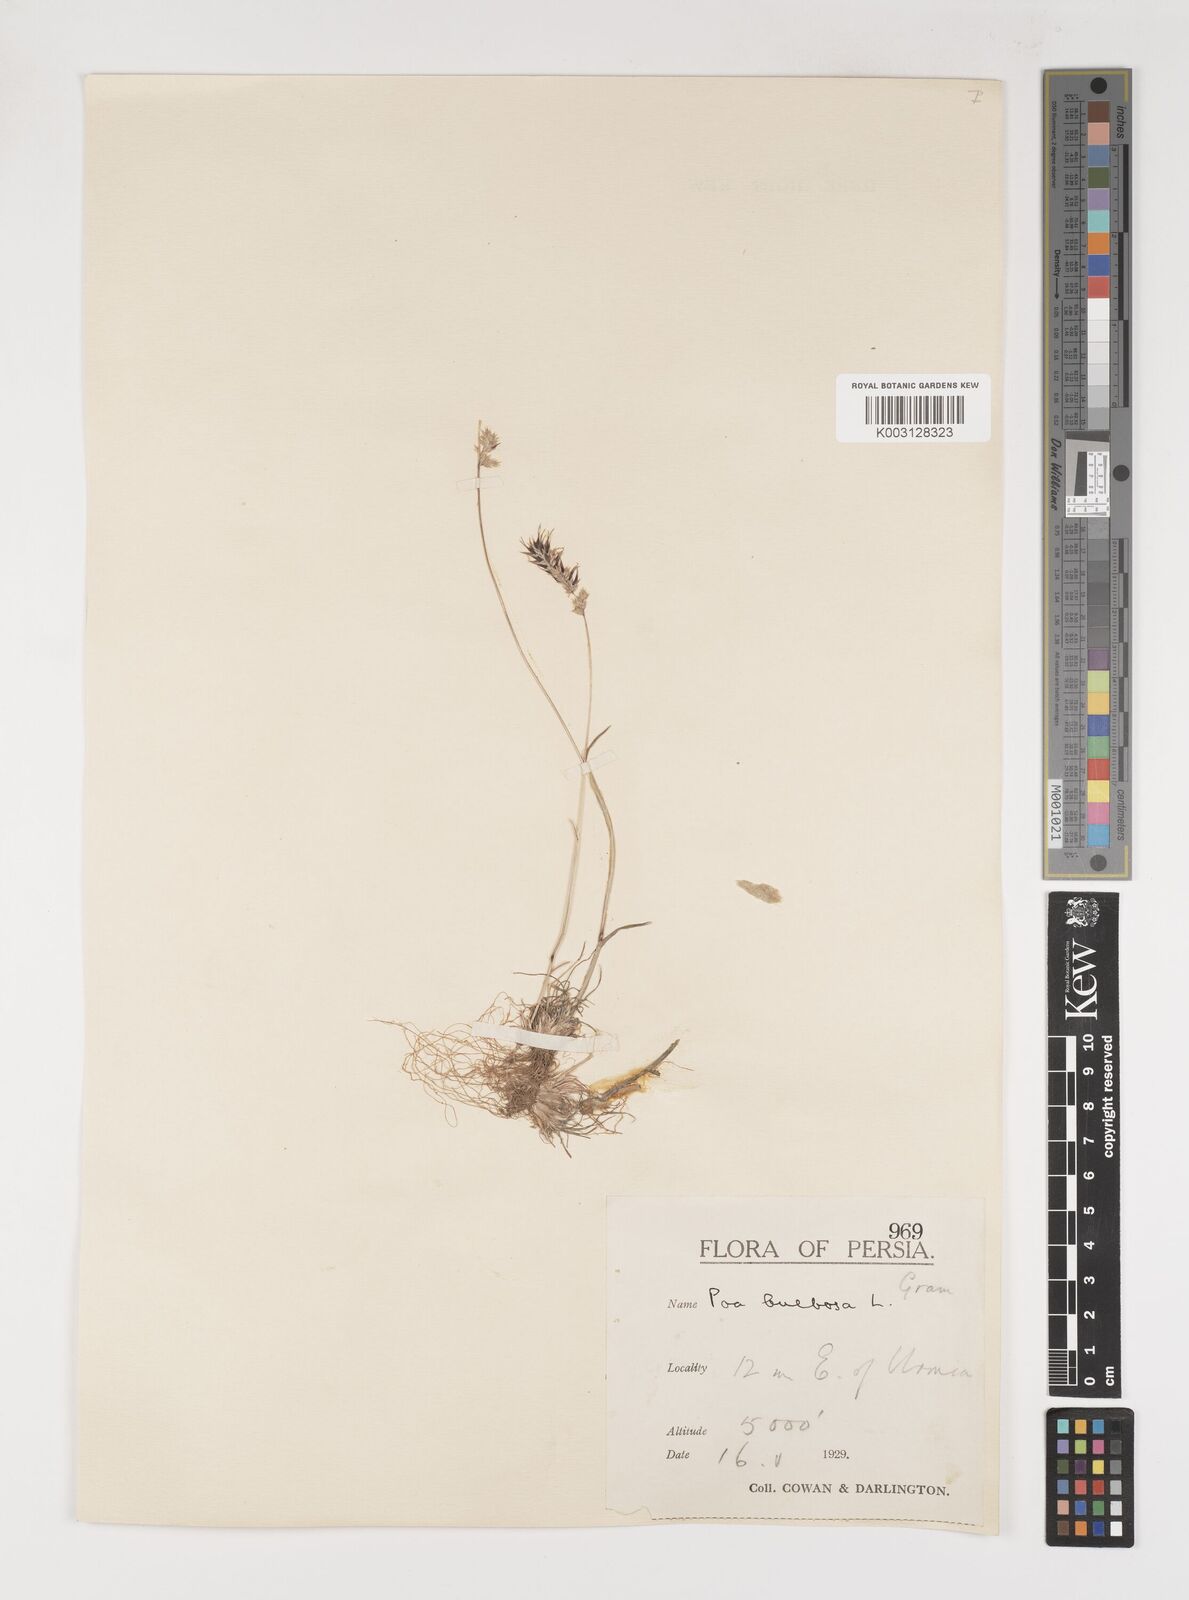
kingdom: Plantae
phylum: Tracheophyta
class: Liliopsida
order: Poales
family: Poaceae
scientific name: Poaceae
